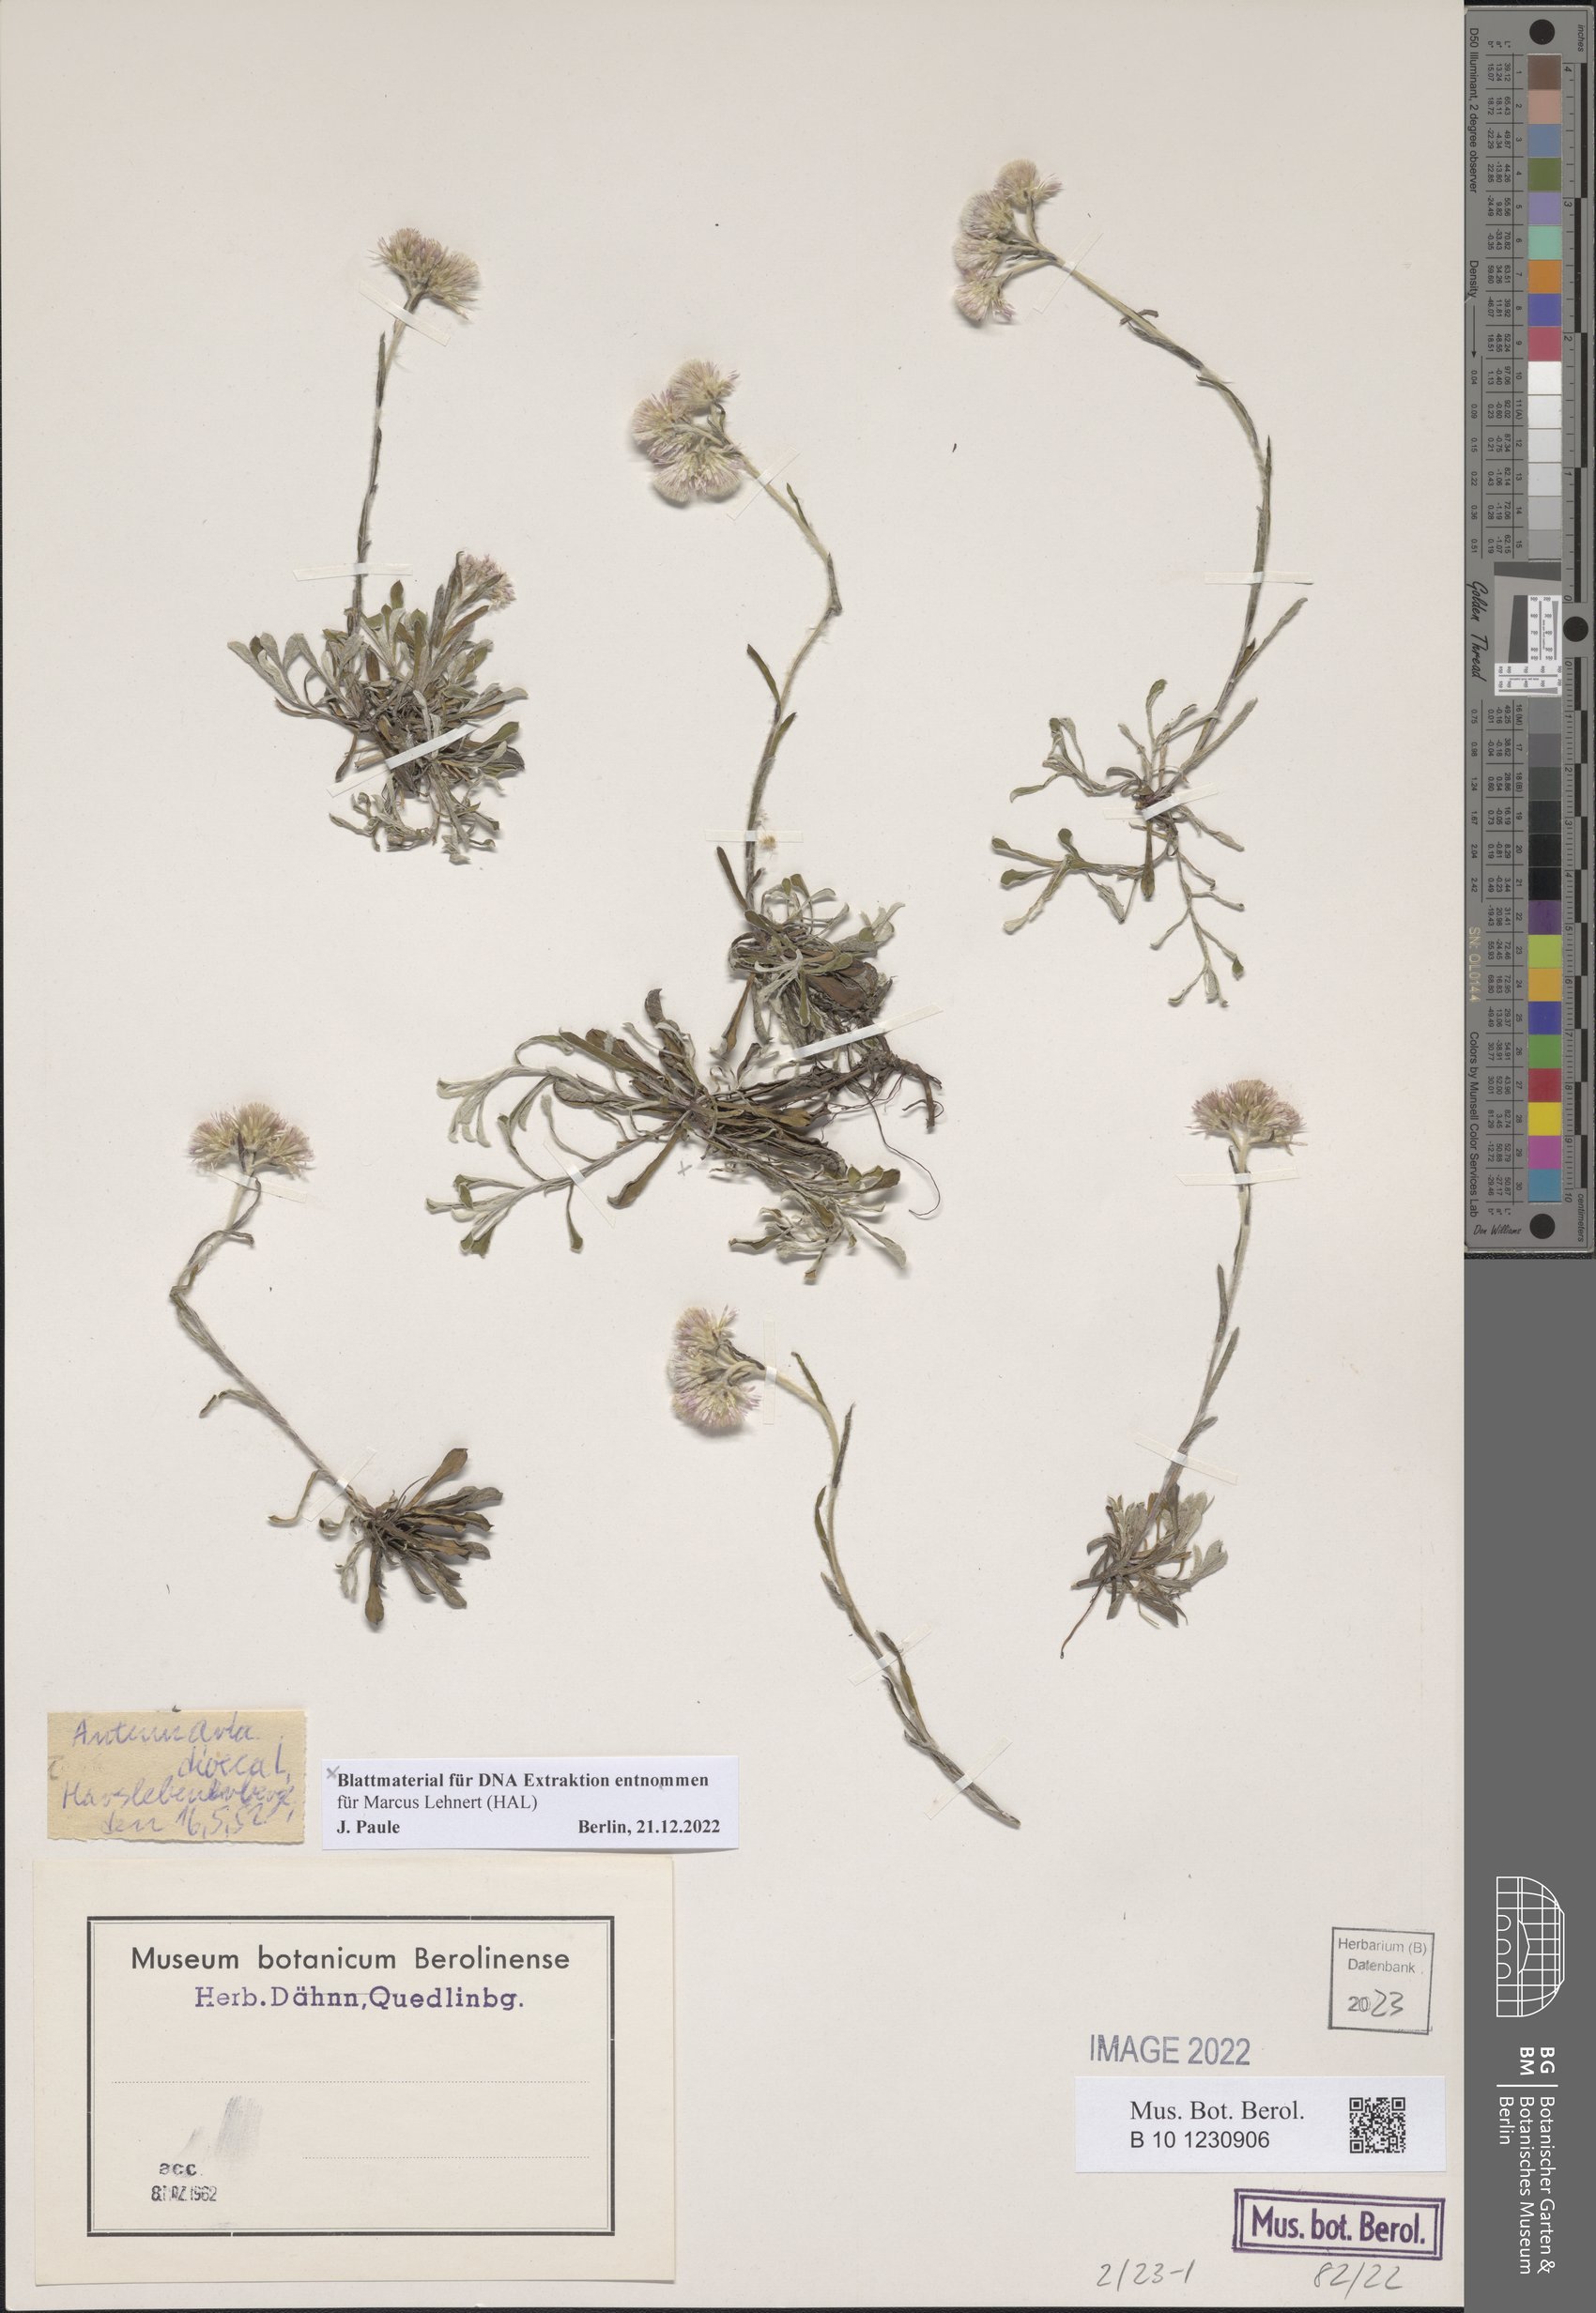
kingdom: Plantae
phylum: Tracheophyta
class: Magnoliopsida
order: Asterales
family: Asteraceae
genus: Antennaria
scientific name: Antennaria dioica
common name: Mountain everlasting
